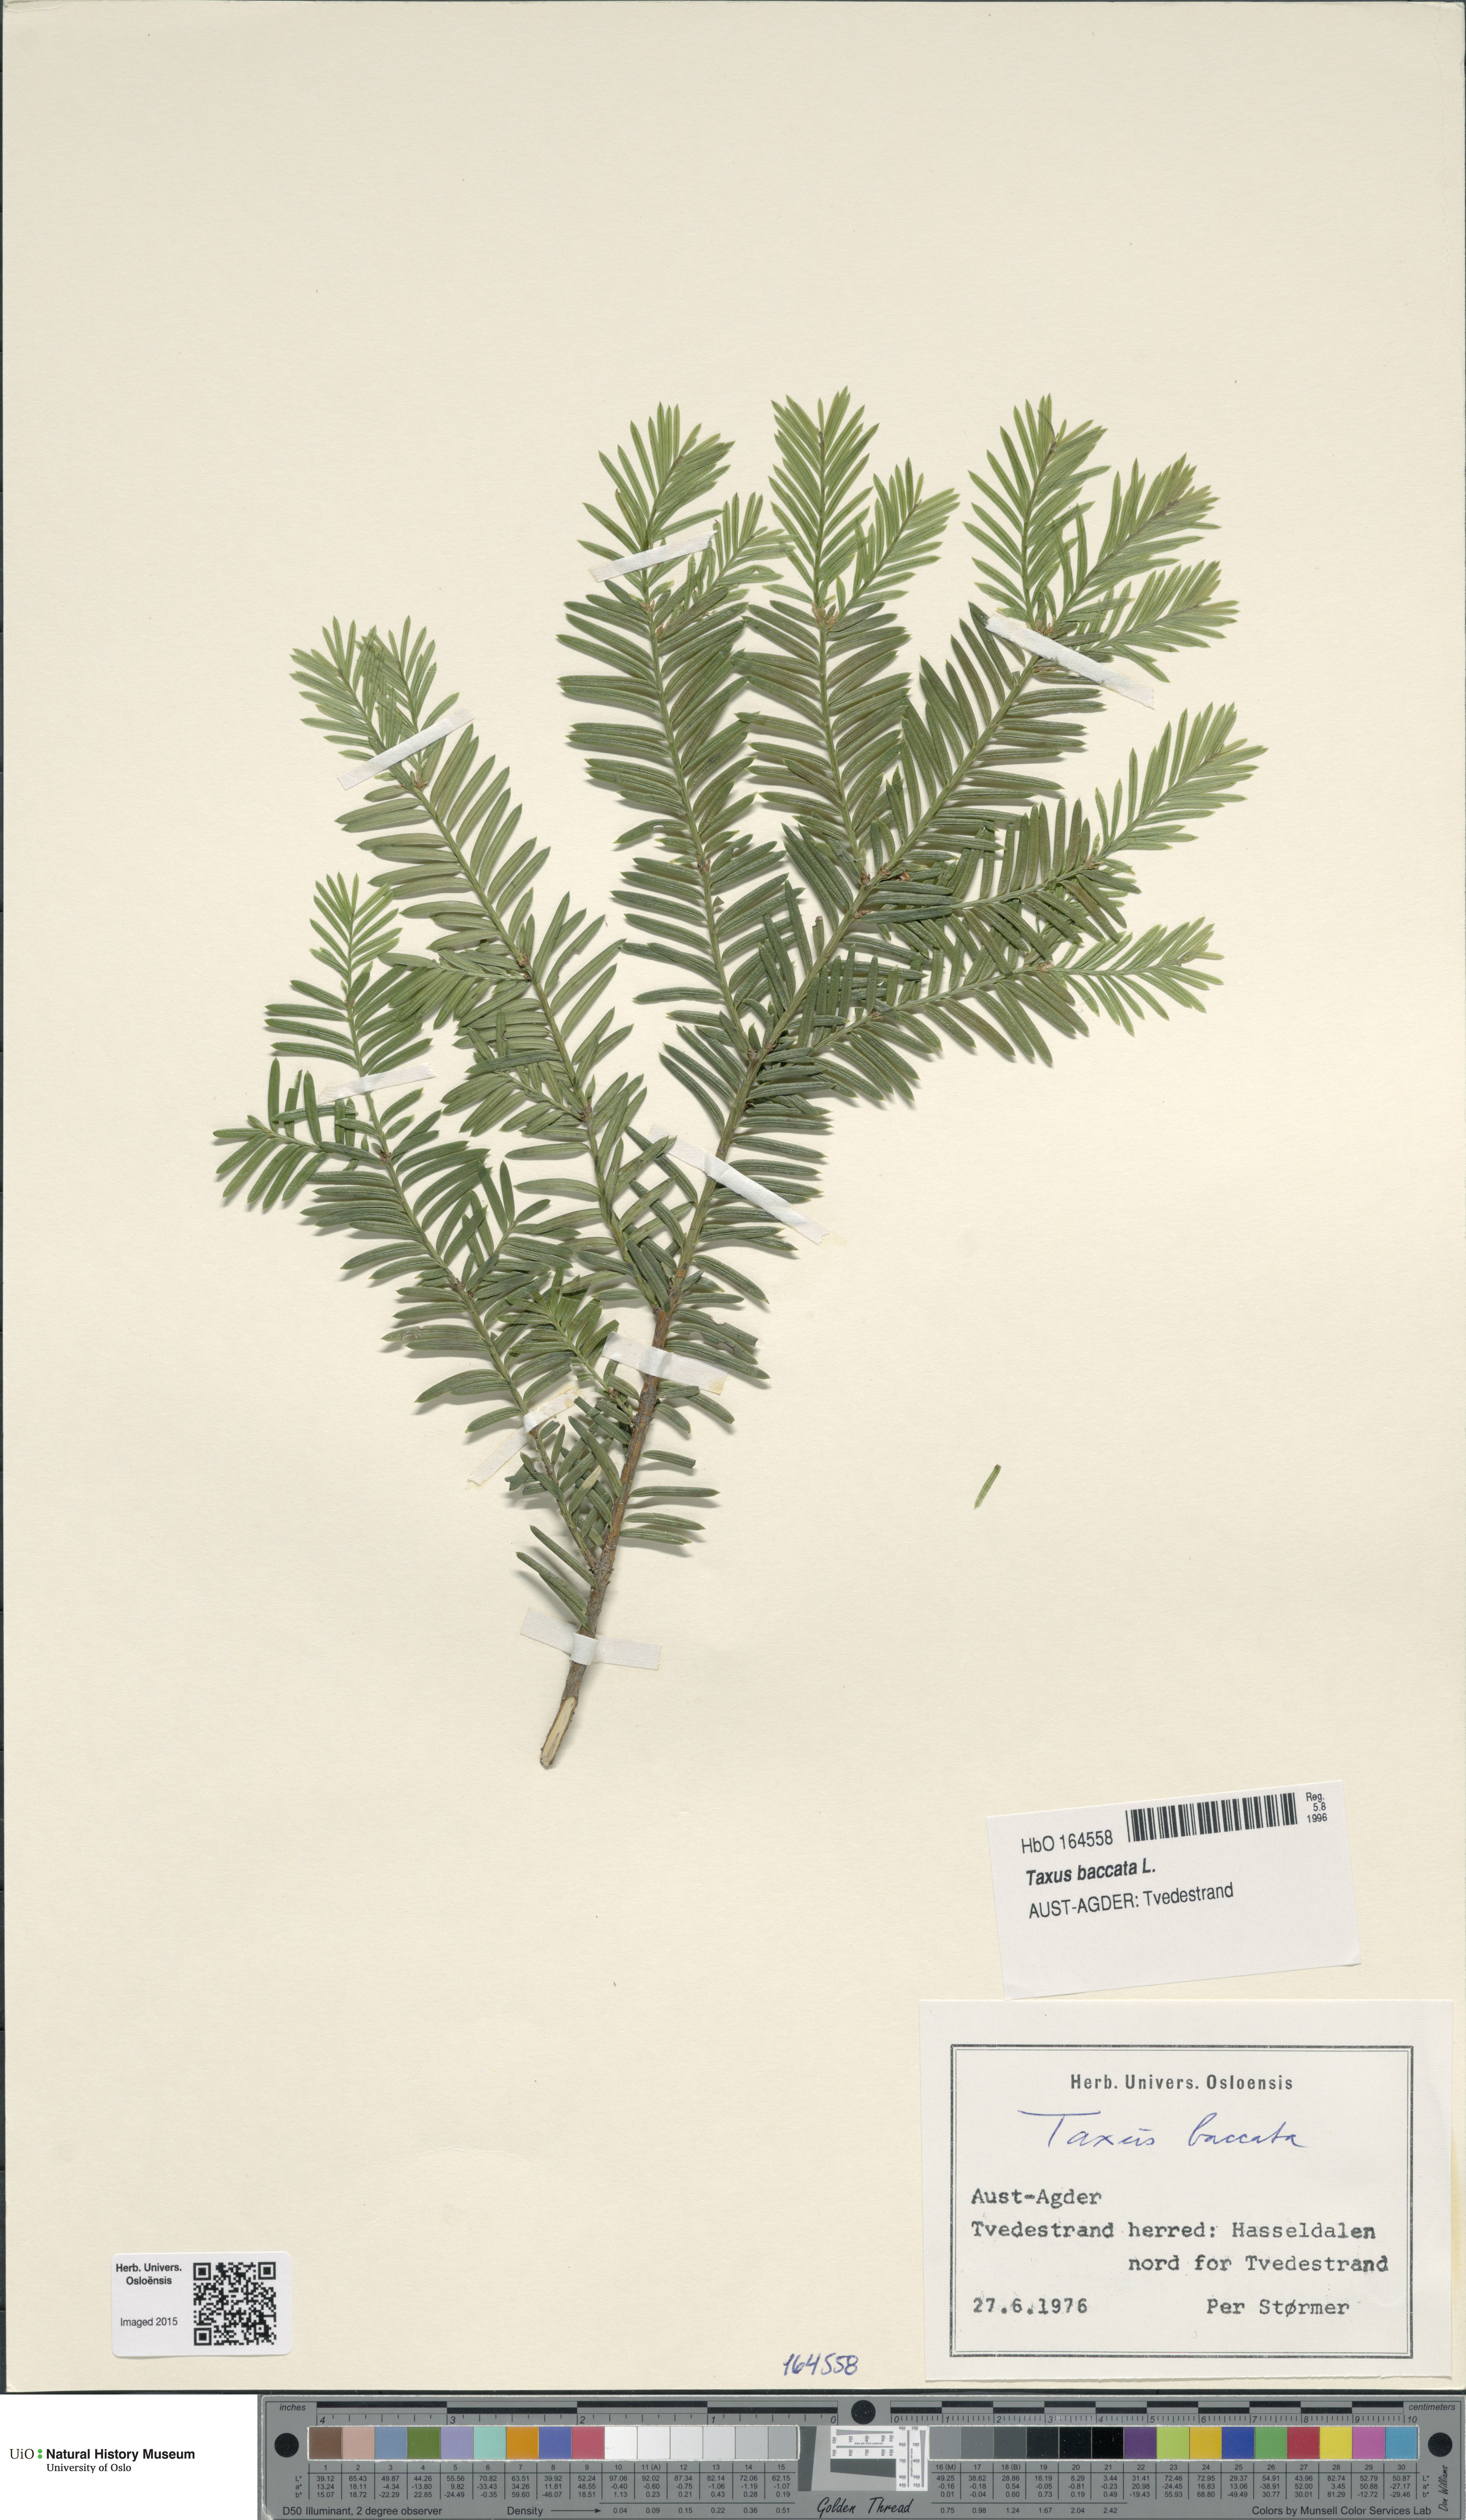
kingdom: Plantae
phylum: Tracheophyta
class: Pinopsida
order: Pinales
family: Taxaceae
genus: Taxus
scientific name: Taxus baccata
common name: Yew
